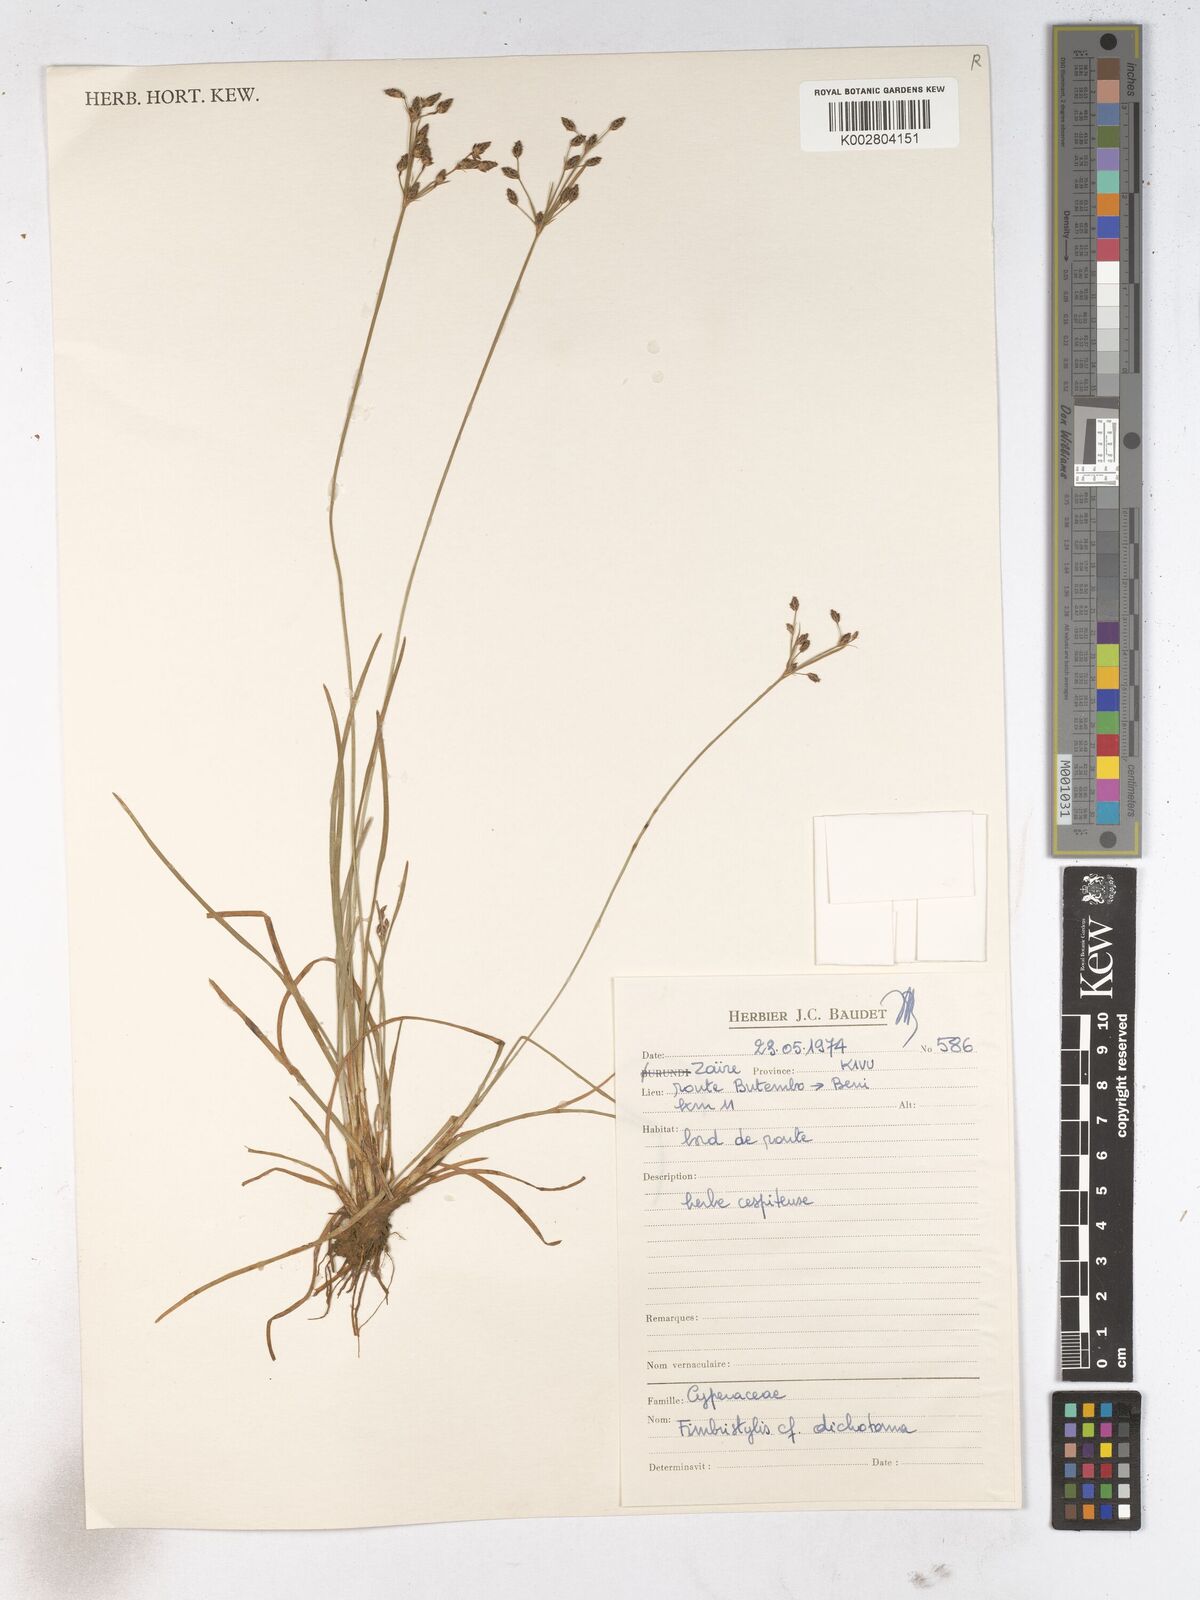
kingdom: Plantae
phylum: Tracheophyta
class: Liliopsida
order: Poales
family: Cyperaceae
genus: Fimbristylis
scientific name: Fimbristylis dichotoma
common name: Forked fimbry
